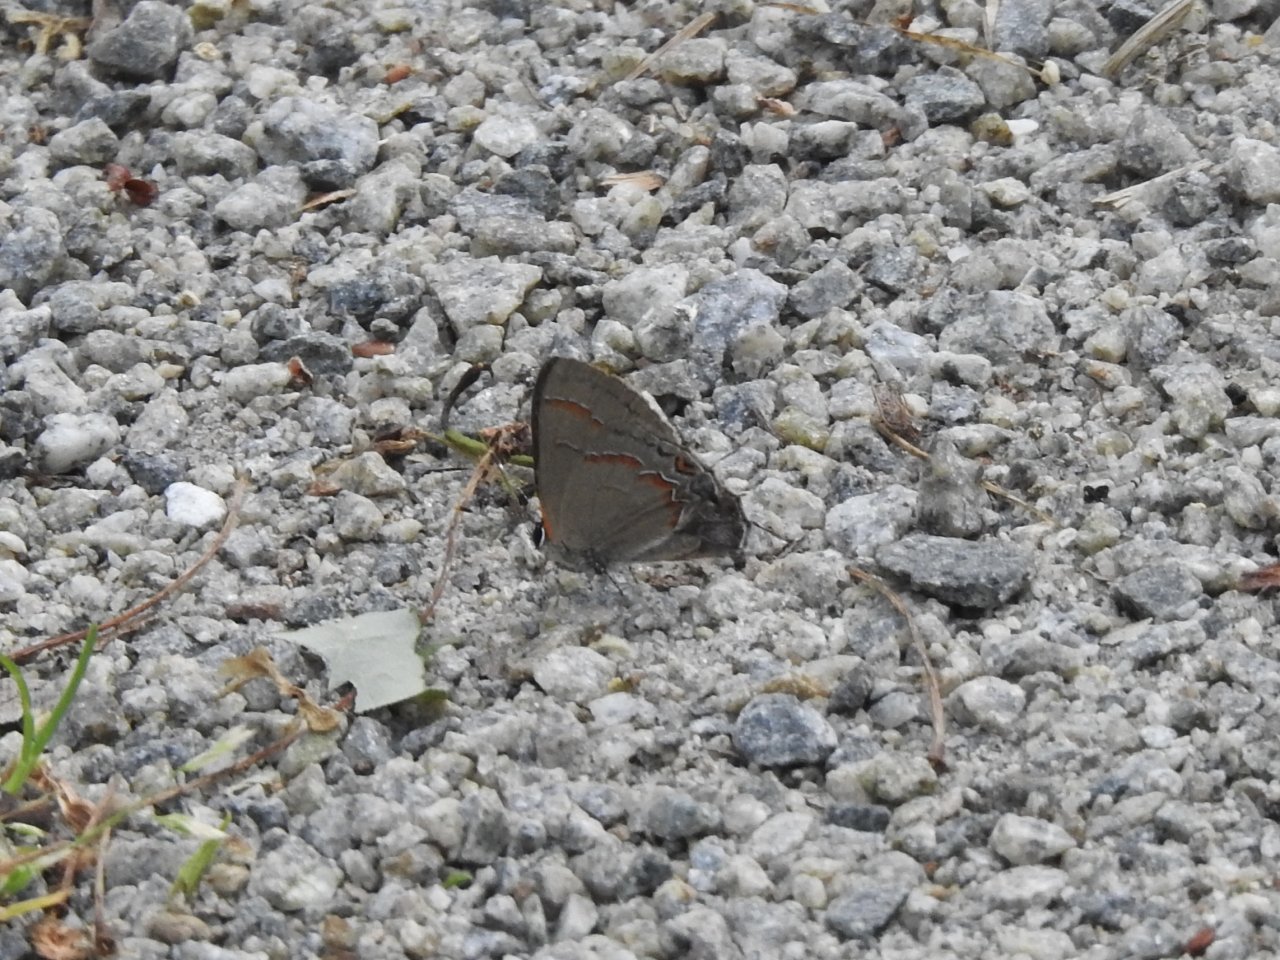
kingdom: Animalia
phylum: Arthropoda
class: Insecta
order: Lepidoptera
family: Lycaenidae
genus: Calycopis
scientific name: Calycopis cecrops
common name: Red-banded Hairstreak
